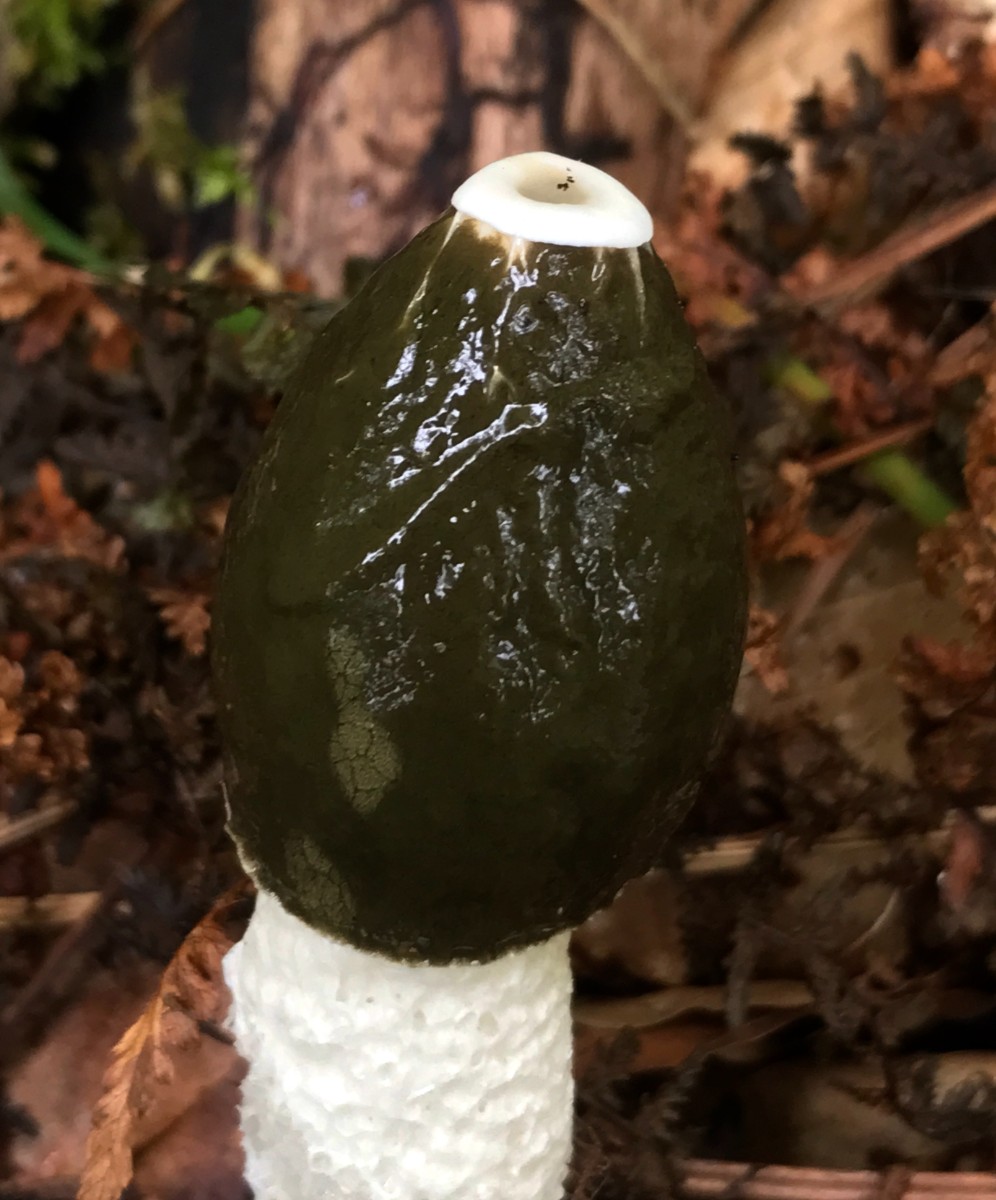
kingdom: Fungi
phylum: Basidiomycota
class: Agaricomycetes
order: Phallales
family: Phallaceae
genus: Phallus
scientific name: Phallus impudicus
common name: almindelig stinksvamp
